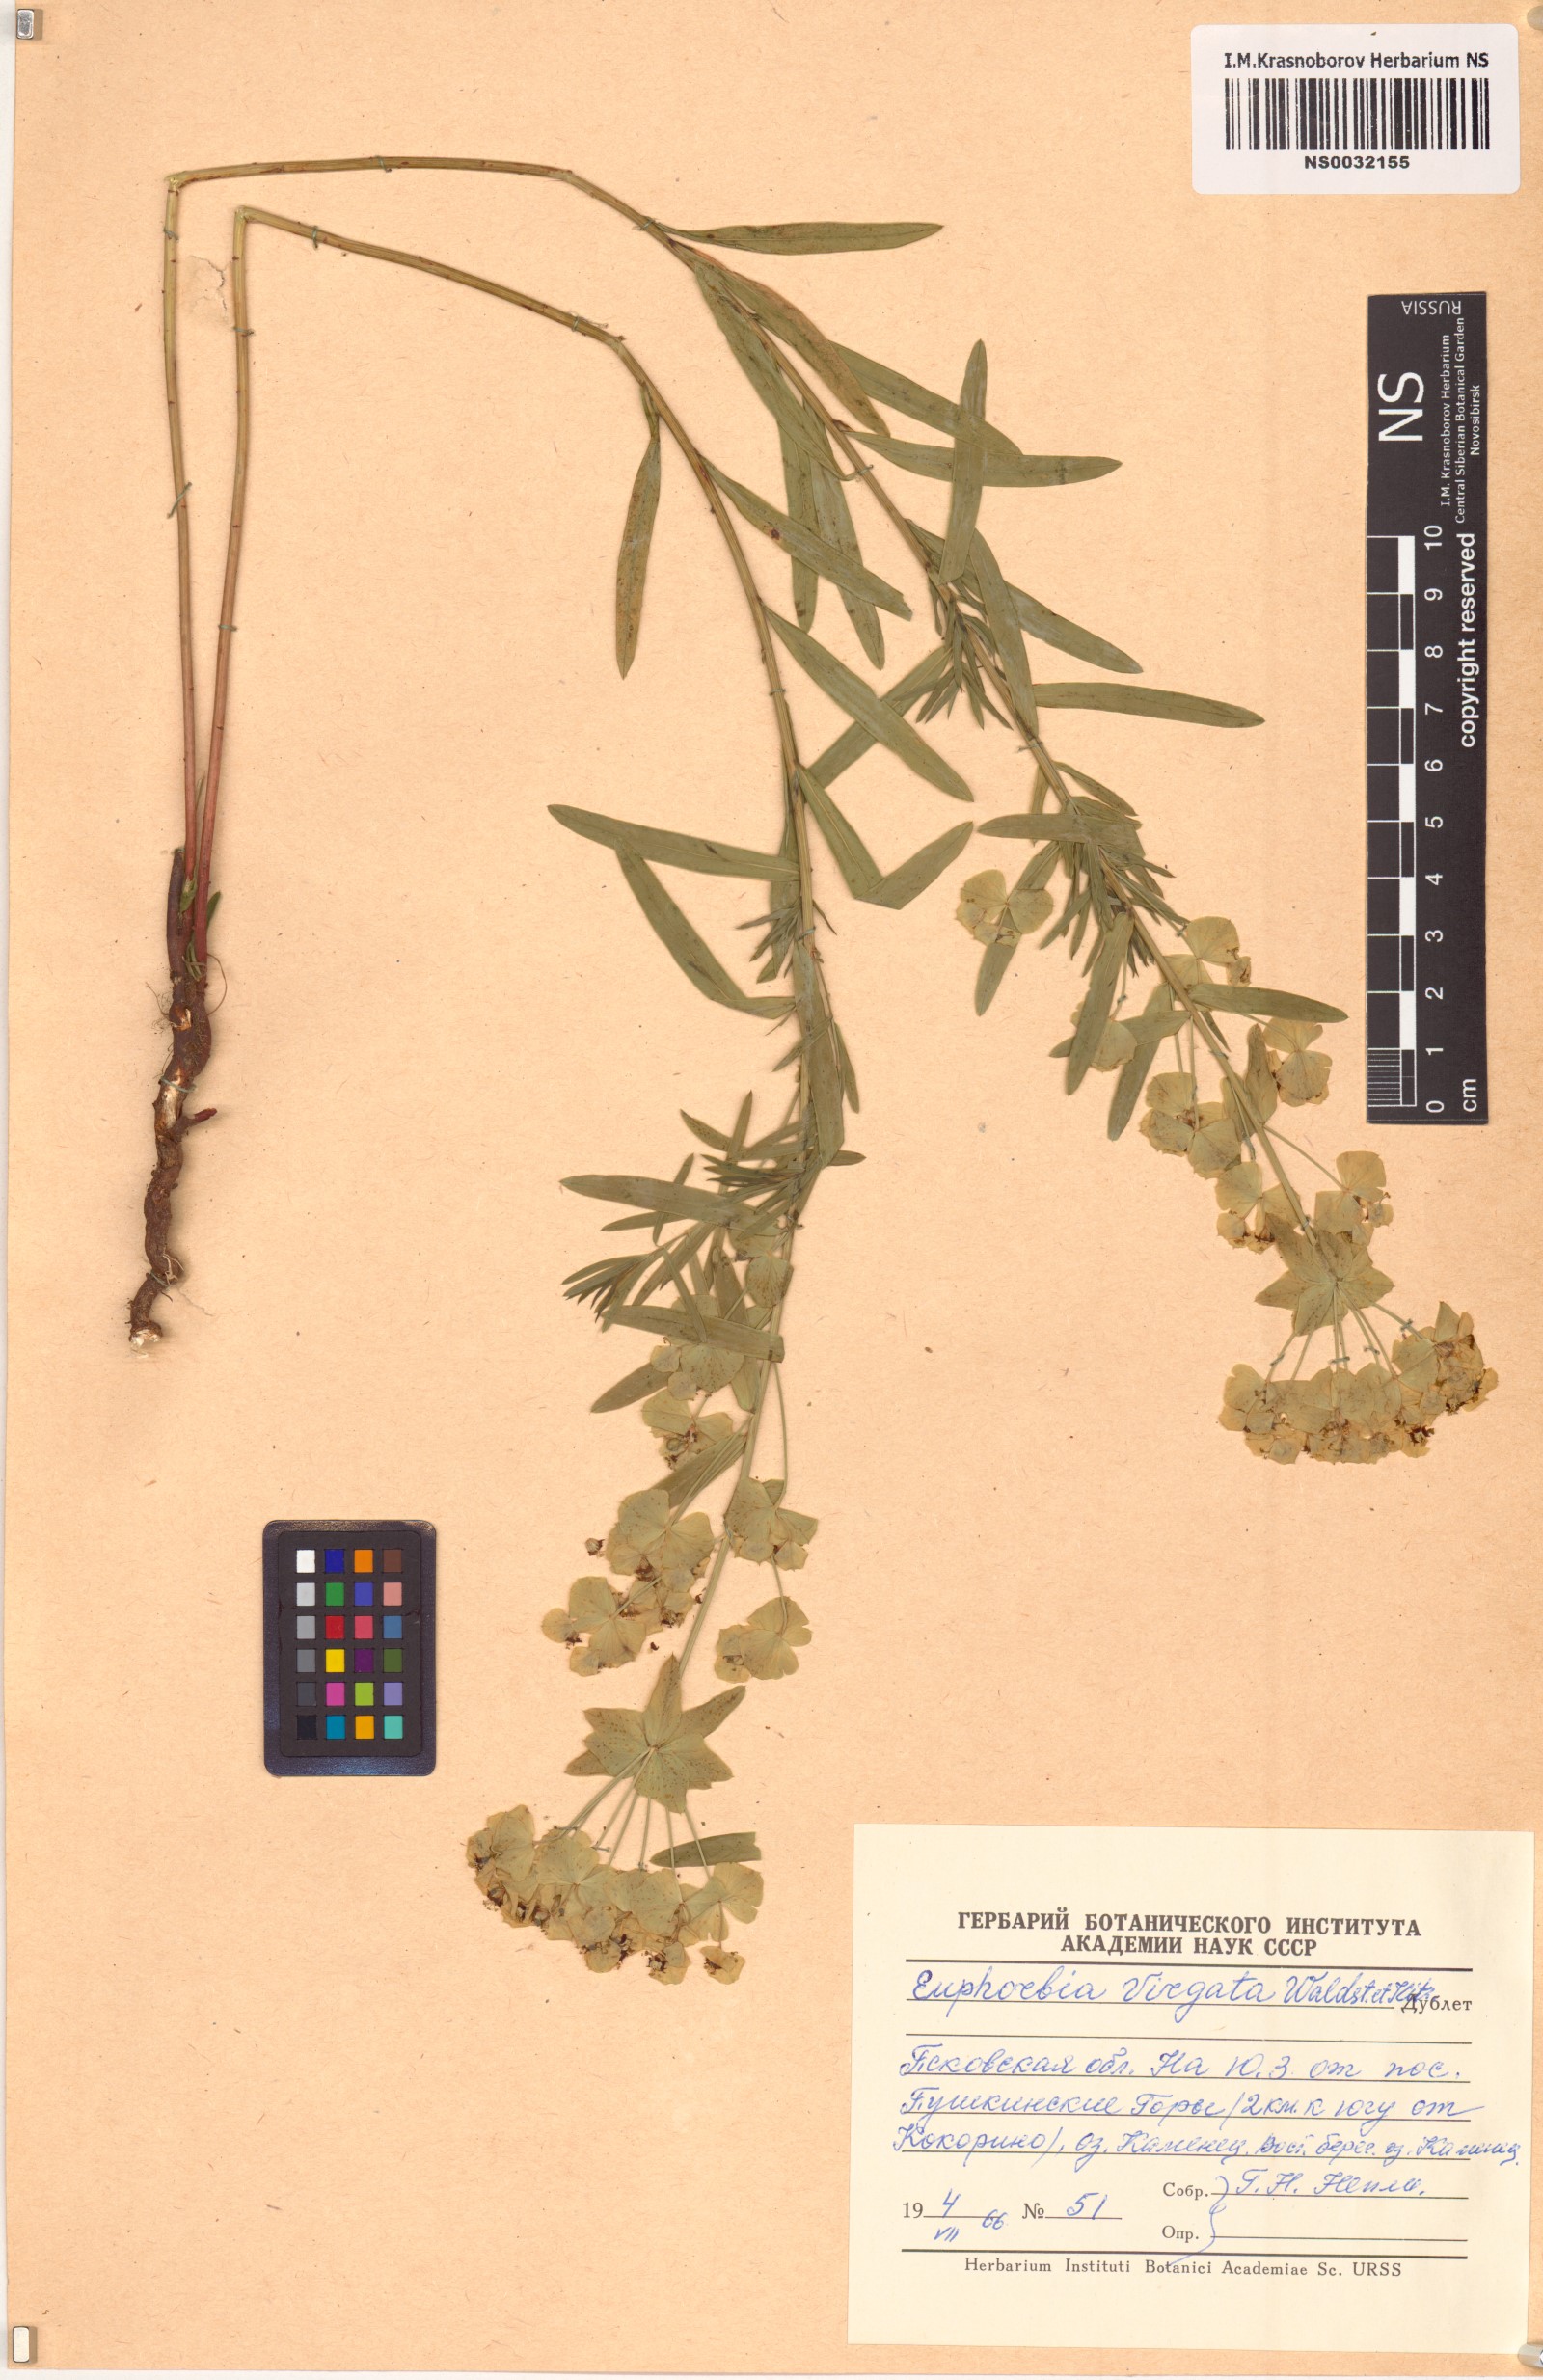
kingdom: Plantae
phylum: Tracheophyta
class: Magnoliopsida
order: Malpighiales
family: Euphorbiaceae
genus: Euphorbia
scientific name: Euphorbia virgata
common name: Leafy spurge
